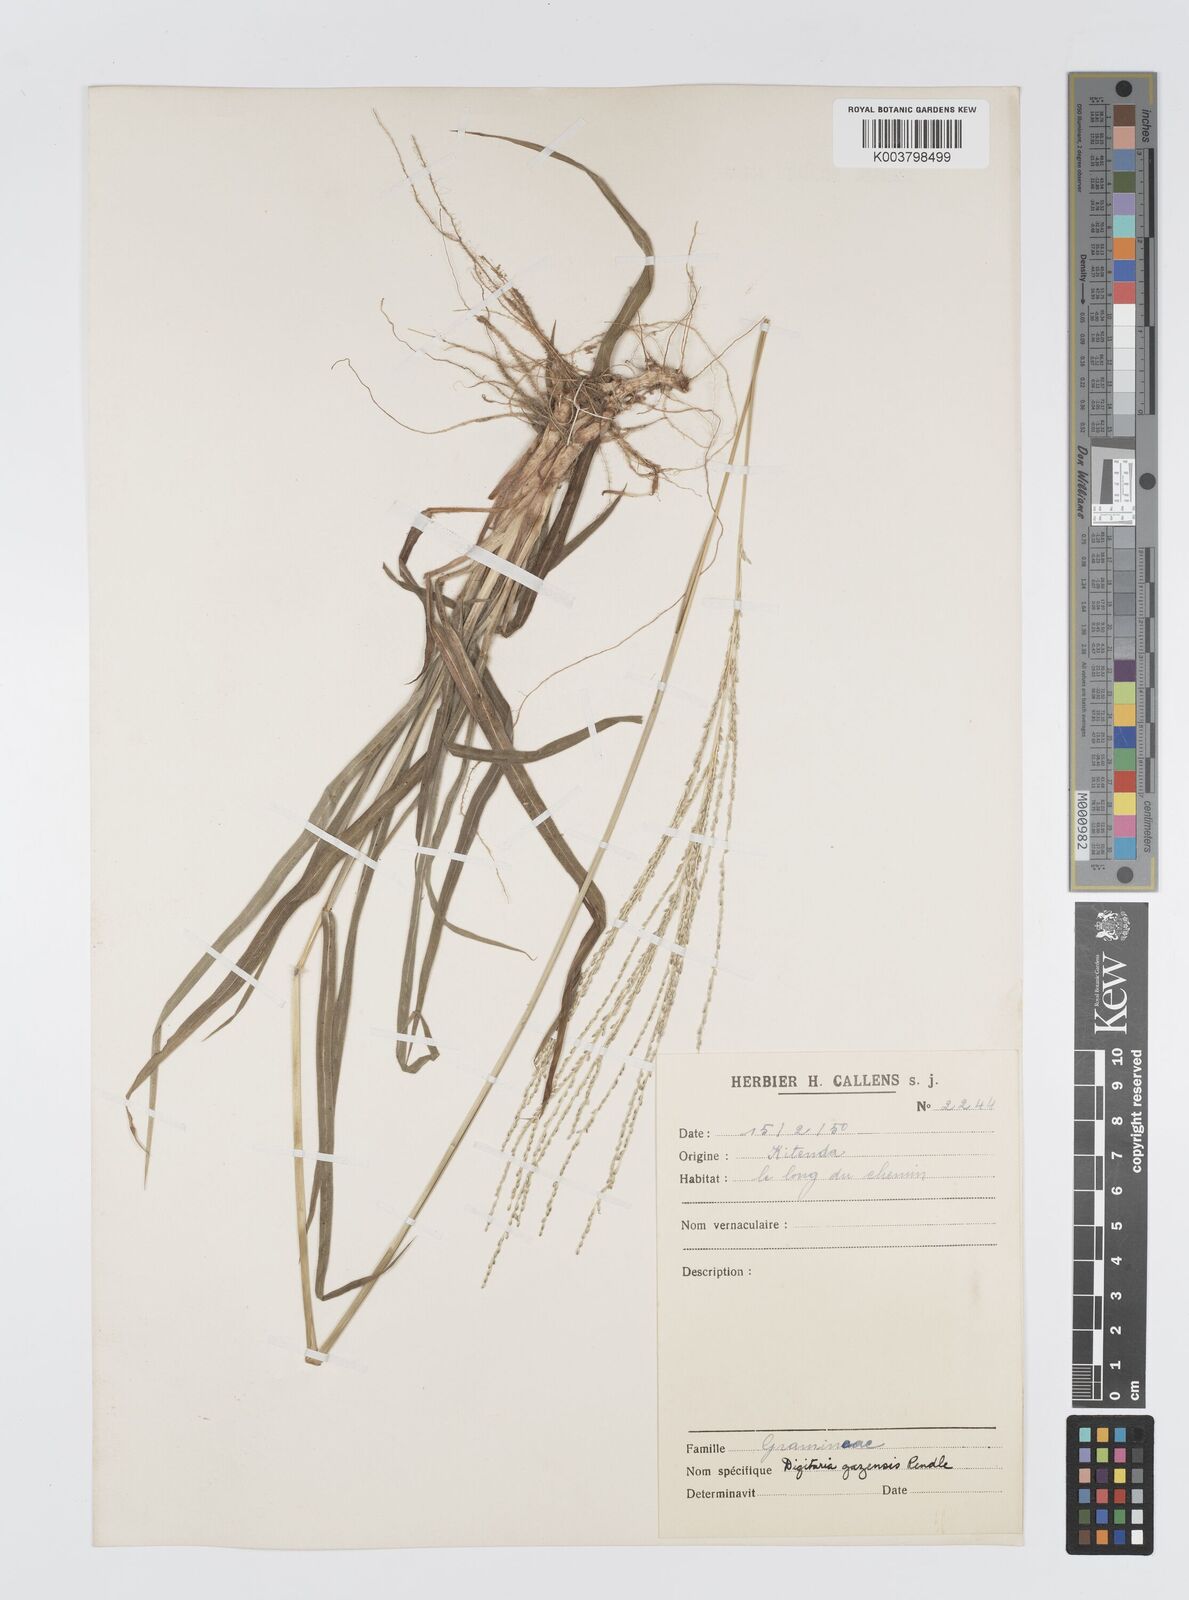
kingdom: Plantae
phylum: Tracheophyta
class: Liliopsida
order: Poales
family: Poaceae
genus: Digitaria
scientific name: Digitaria gazensis
